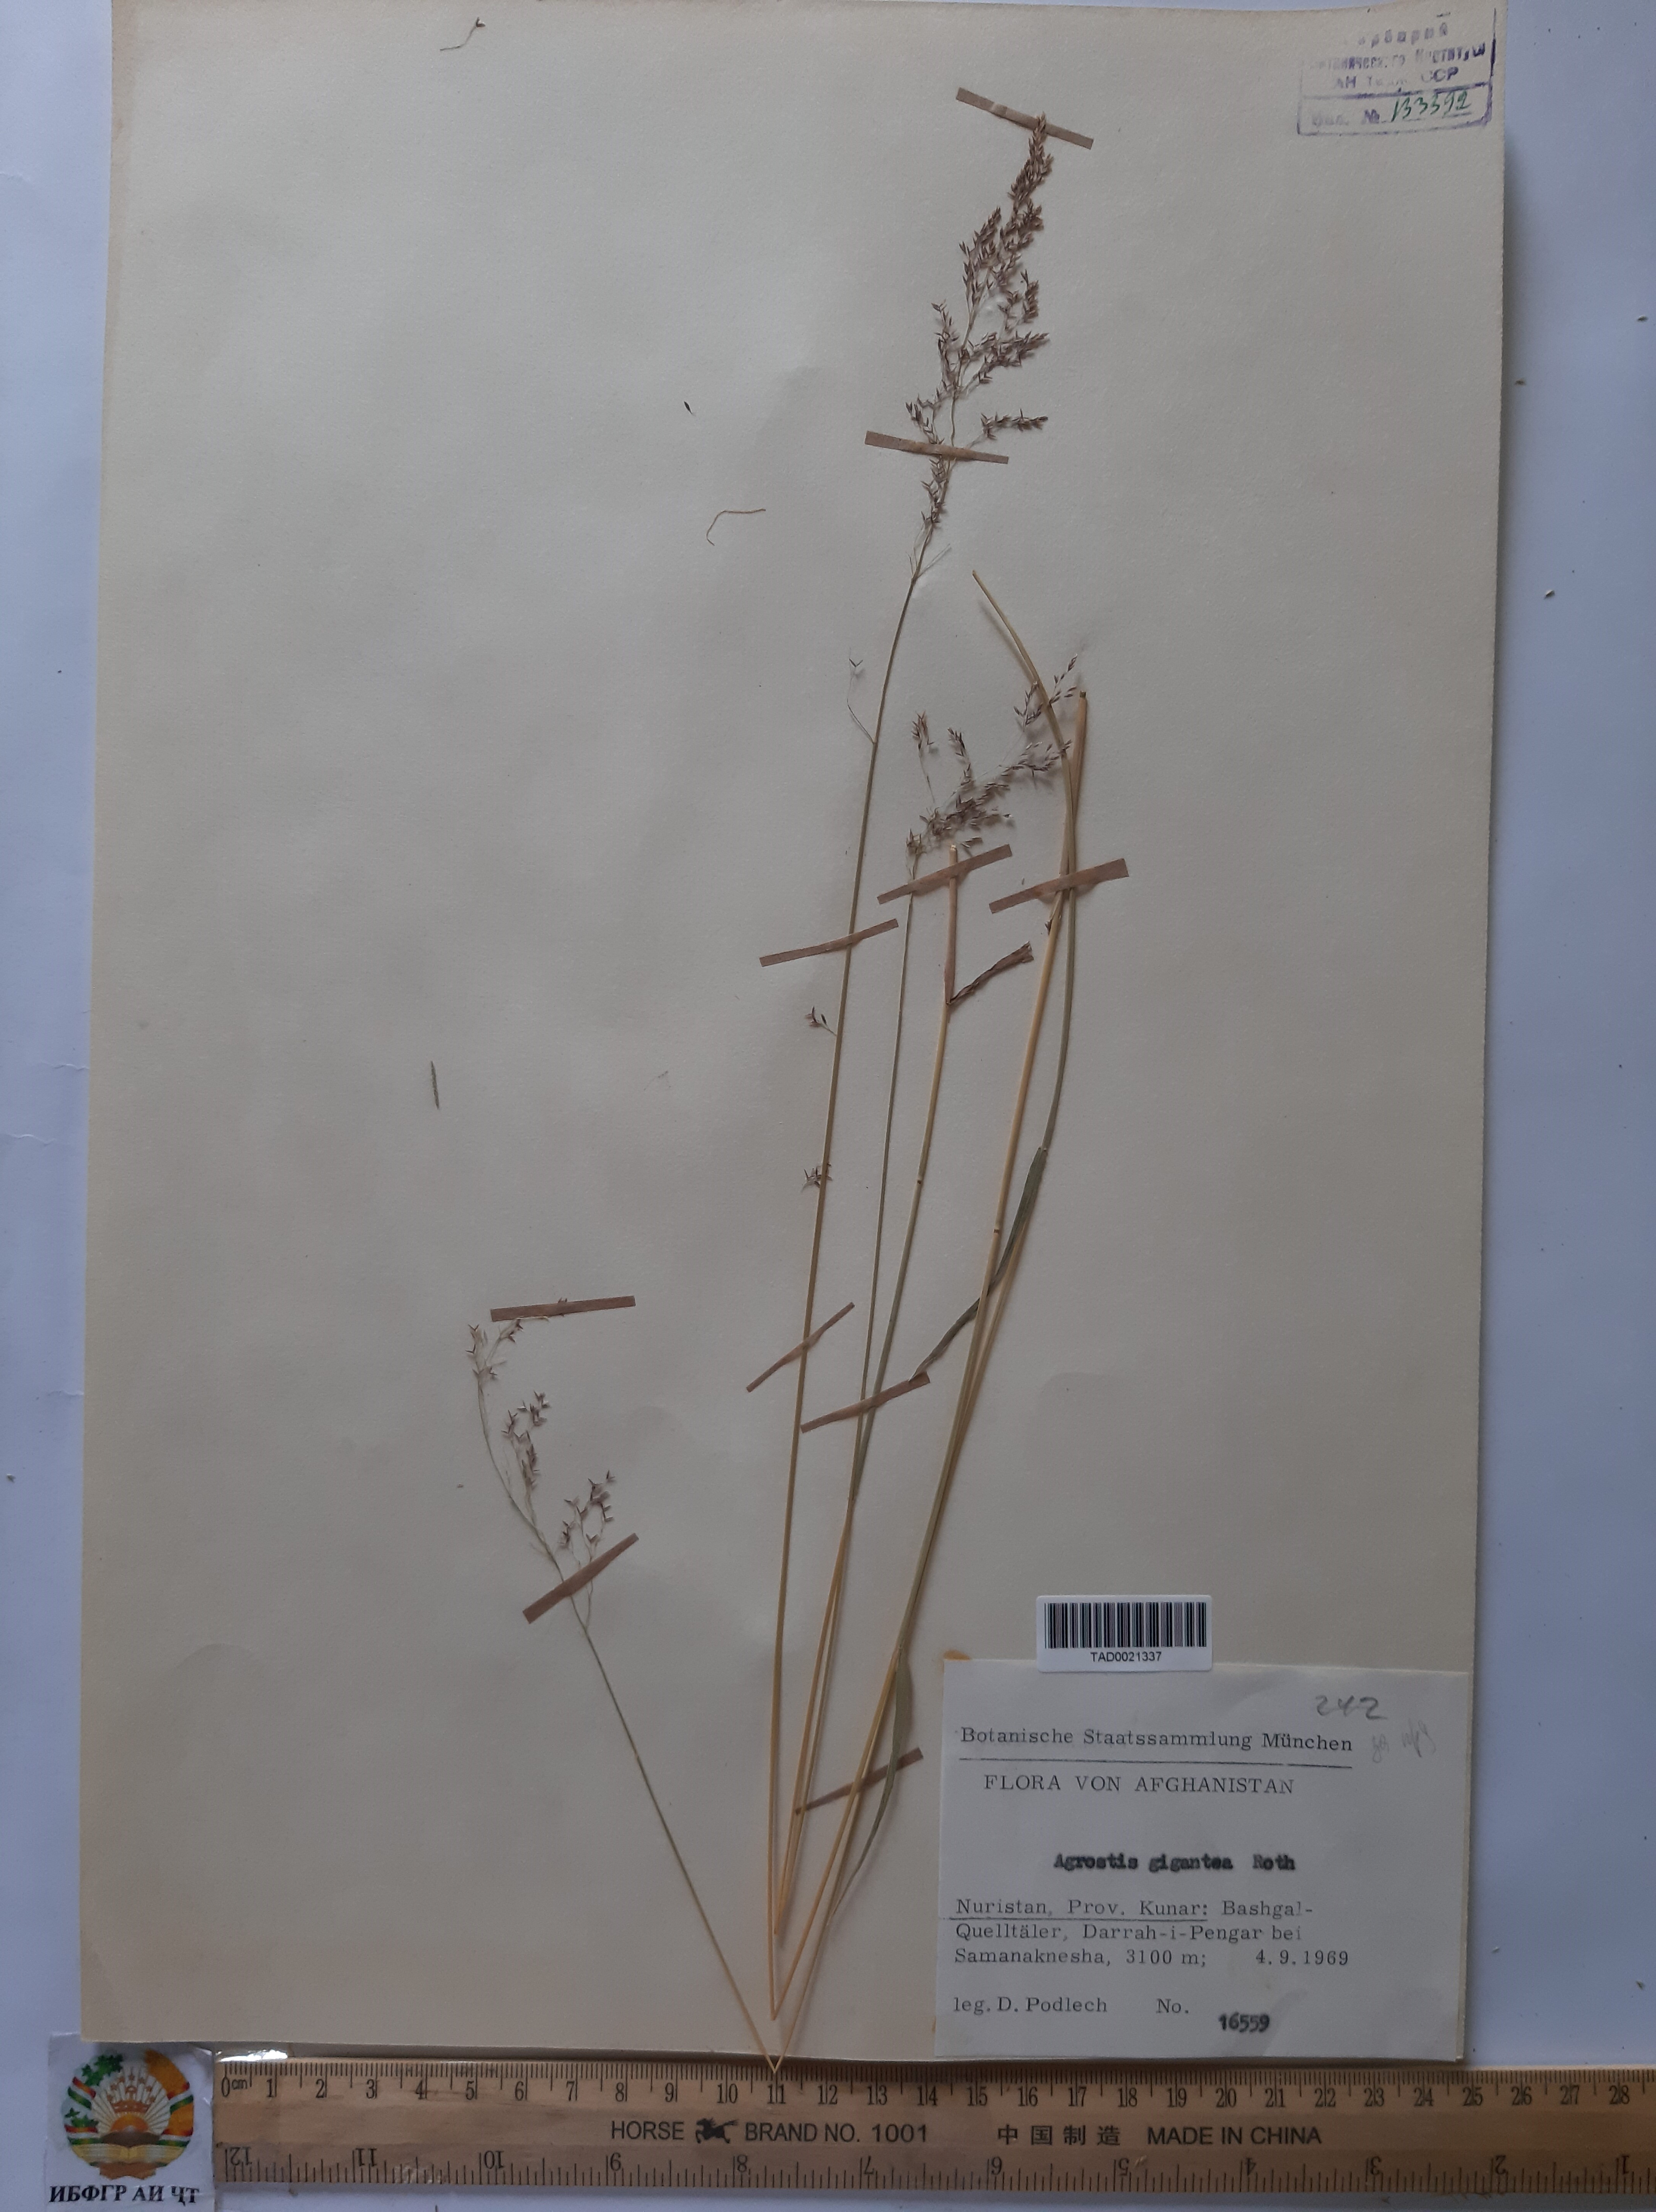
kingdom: Plantae
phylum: Tracheophyta
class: Liliopsida
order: Poales
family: Poaceae
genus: Agrostis
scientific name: Agrostis gigantea
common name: Black bent
